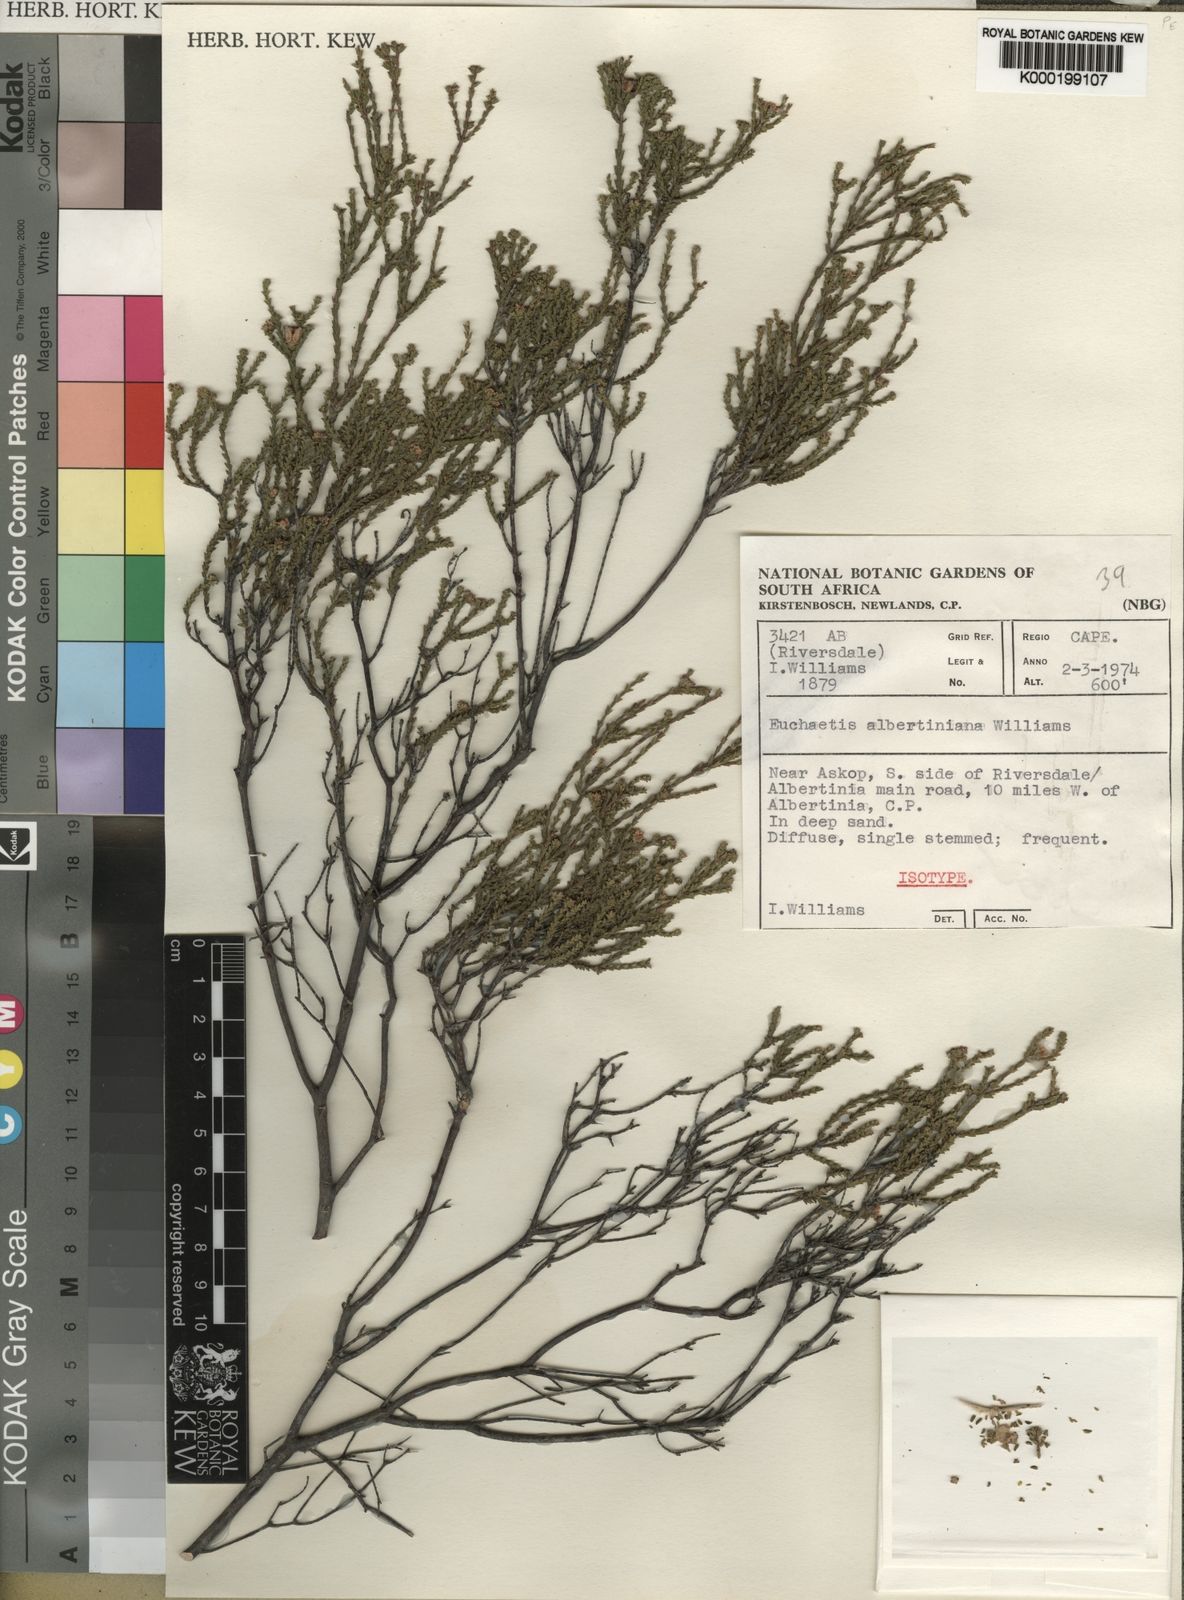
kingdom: Plantae
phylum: Tracheophyta
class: Magnoliopsida
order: Sapindales
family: Rutaceae
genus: Euchaetis
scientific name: Euchaetis albertiniana
